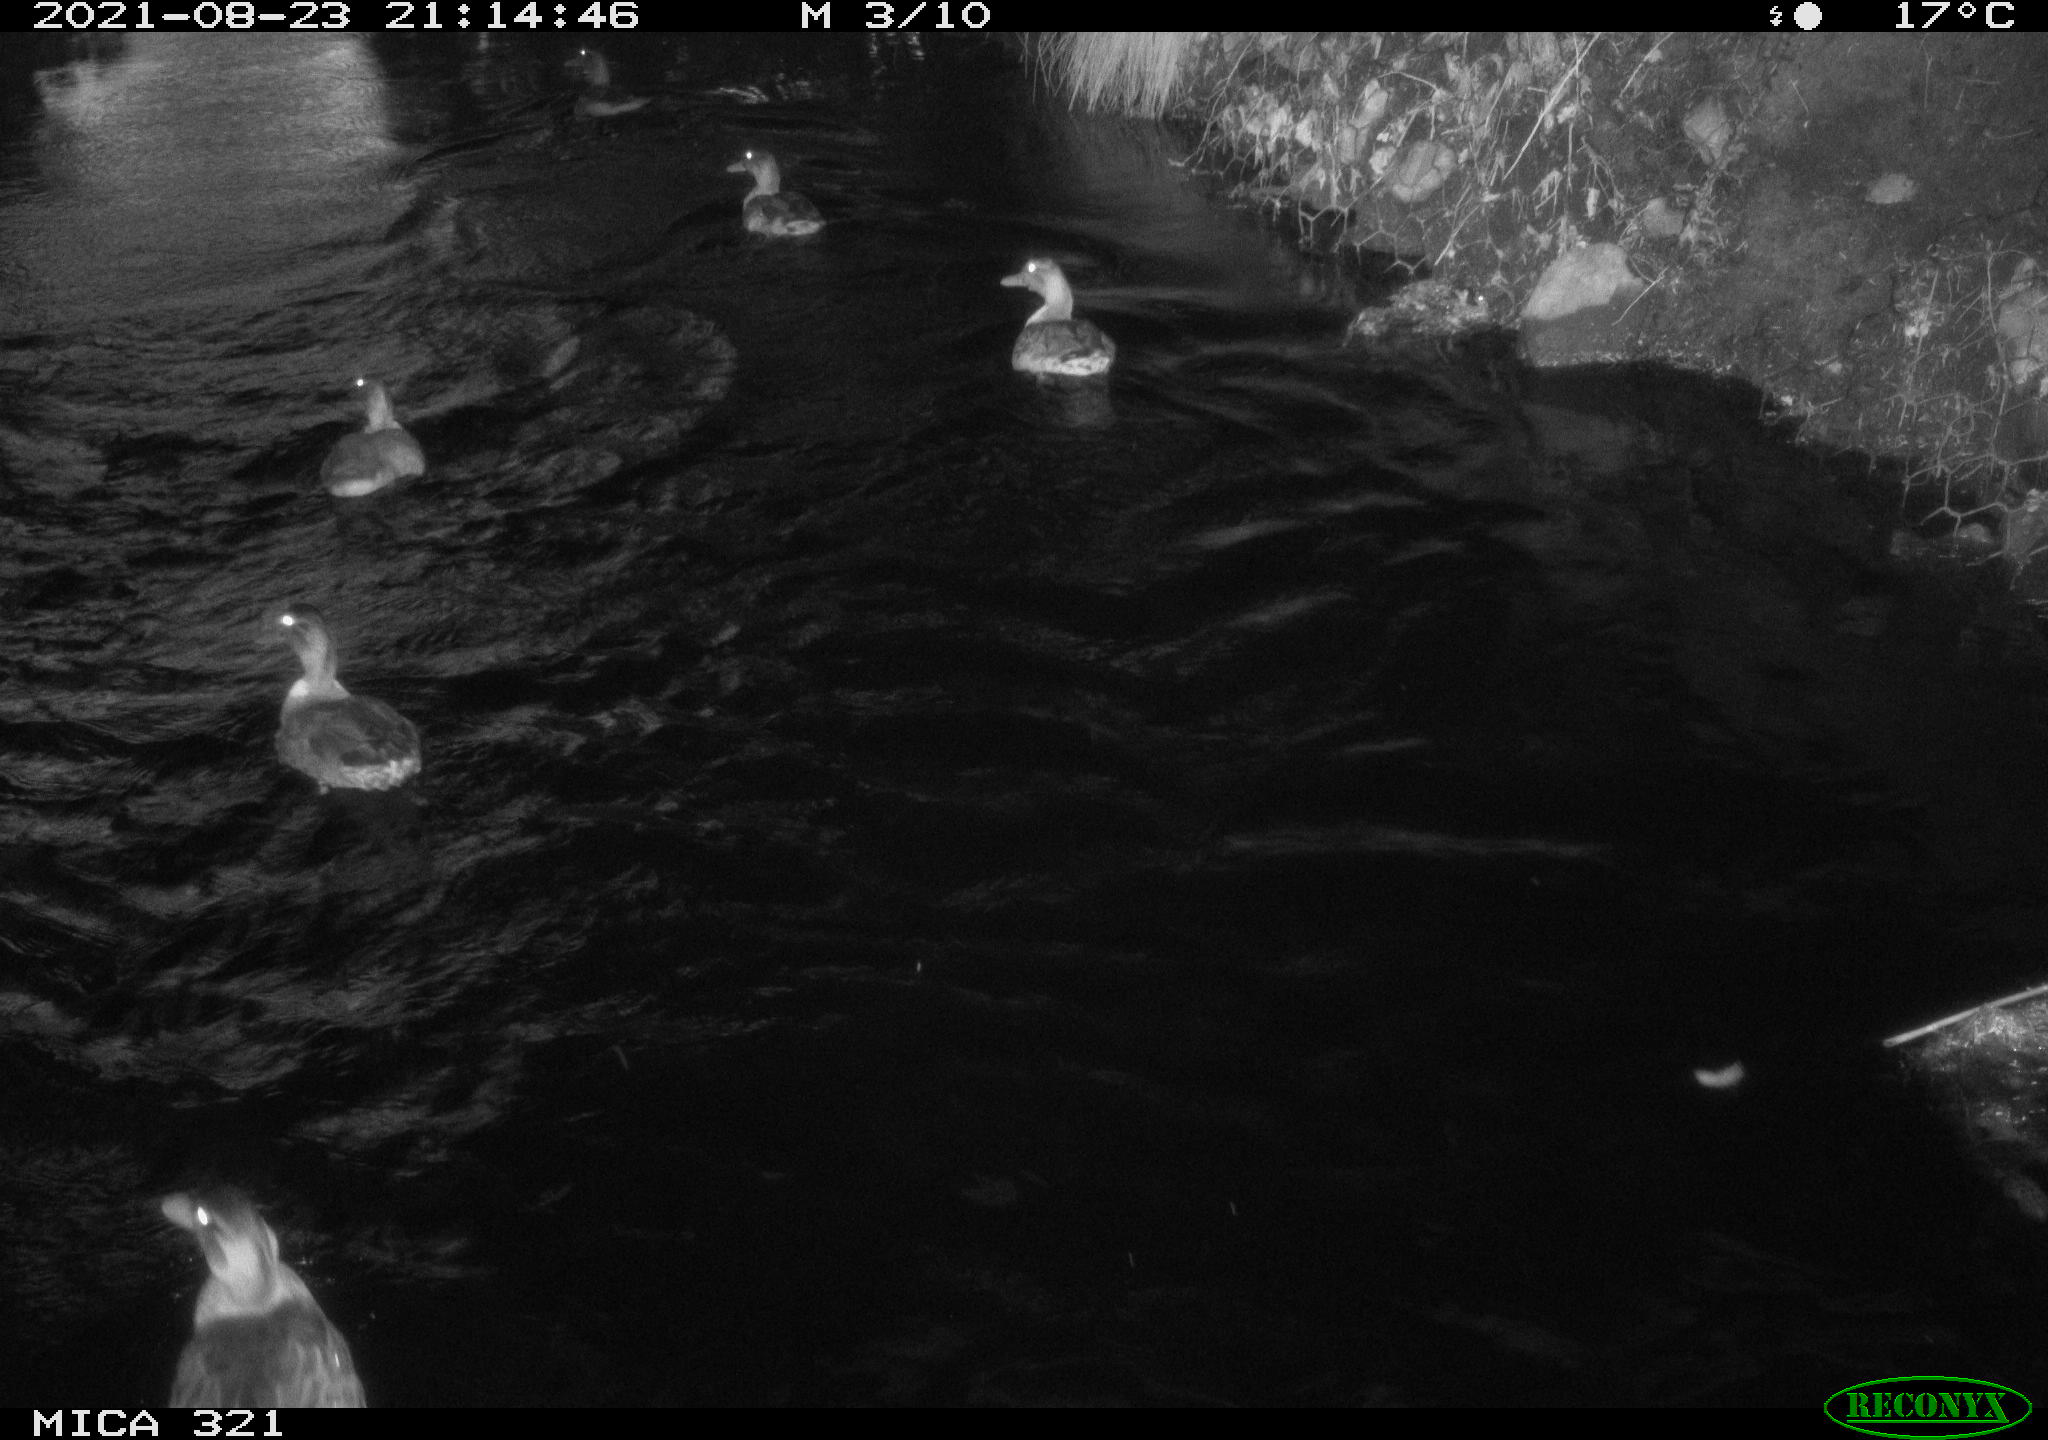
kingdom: Animalia
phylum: Chordata
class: Aves
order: Anseriformes
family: Anatidae
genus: Anas
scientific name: Anas platyrhynchos
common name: Mallard
